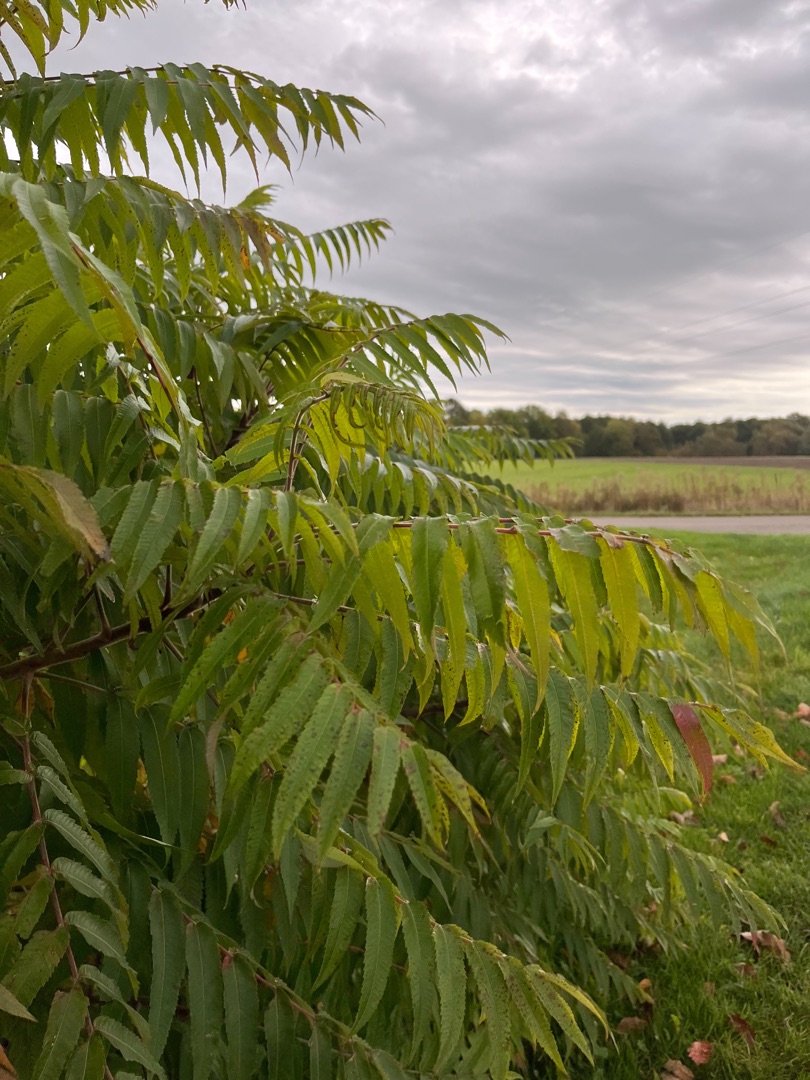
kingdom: Plantae
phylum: Tracheophyta
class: Magnoliopsida
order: Sapindales
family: Anacardiaceae
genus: Rhus
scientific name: Rhus typhina
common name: Hjortetaktræ
